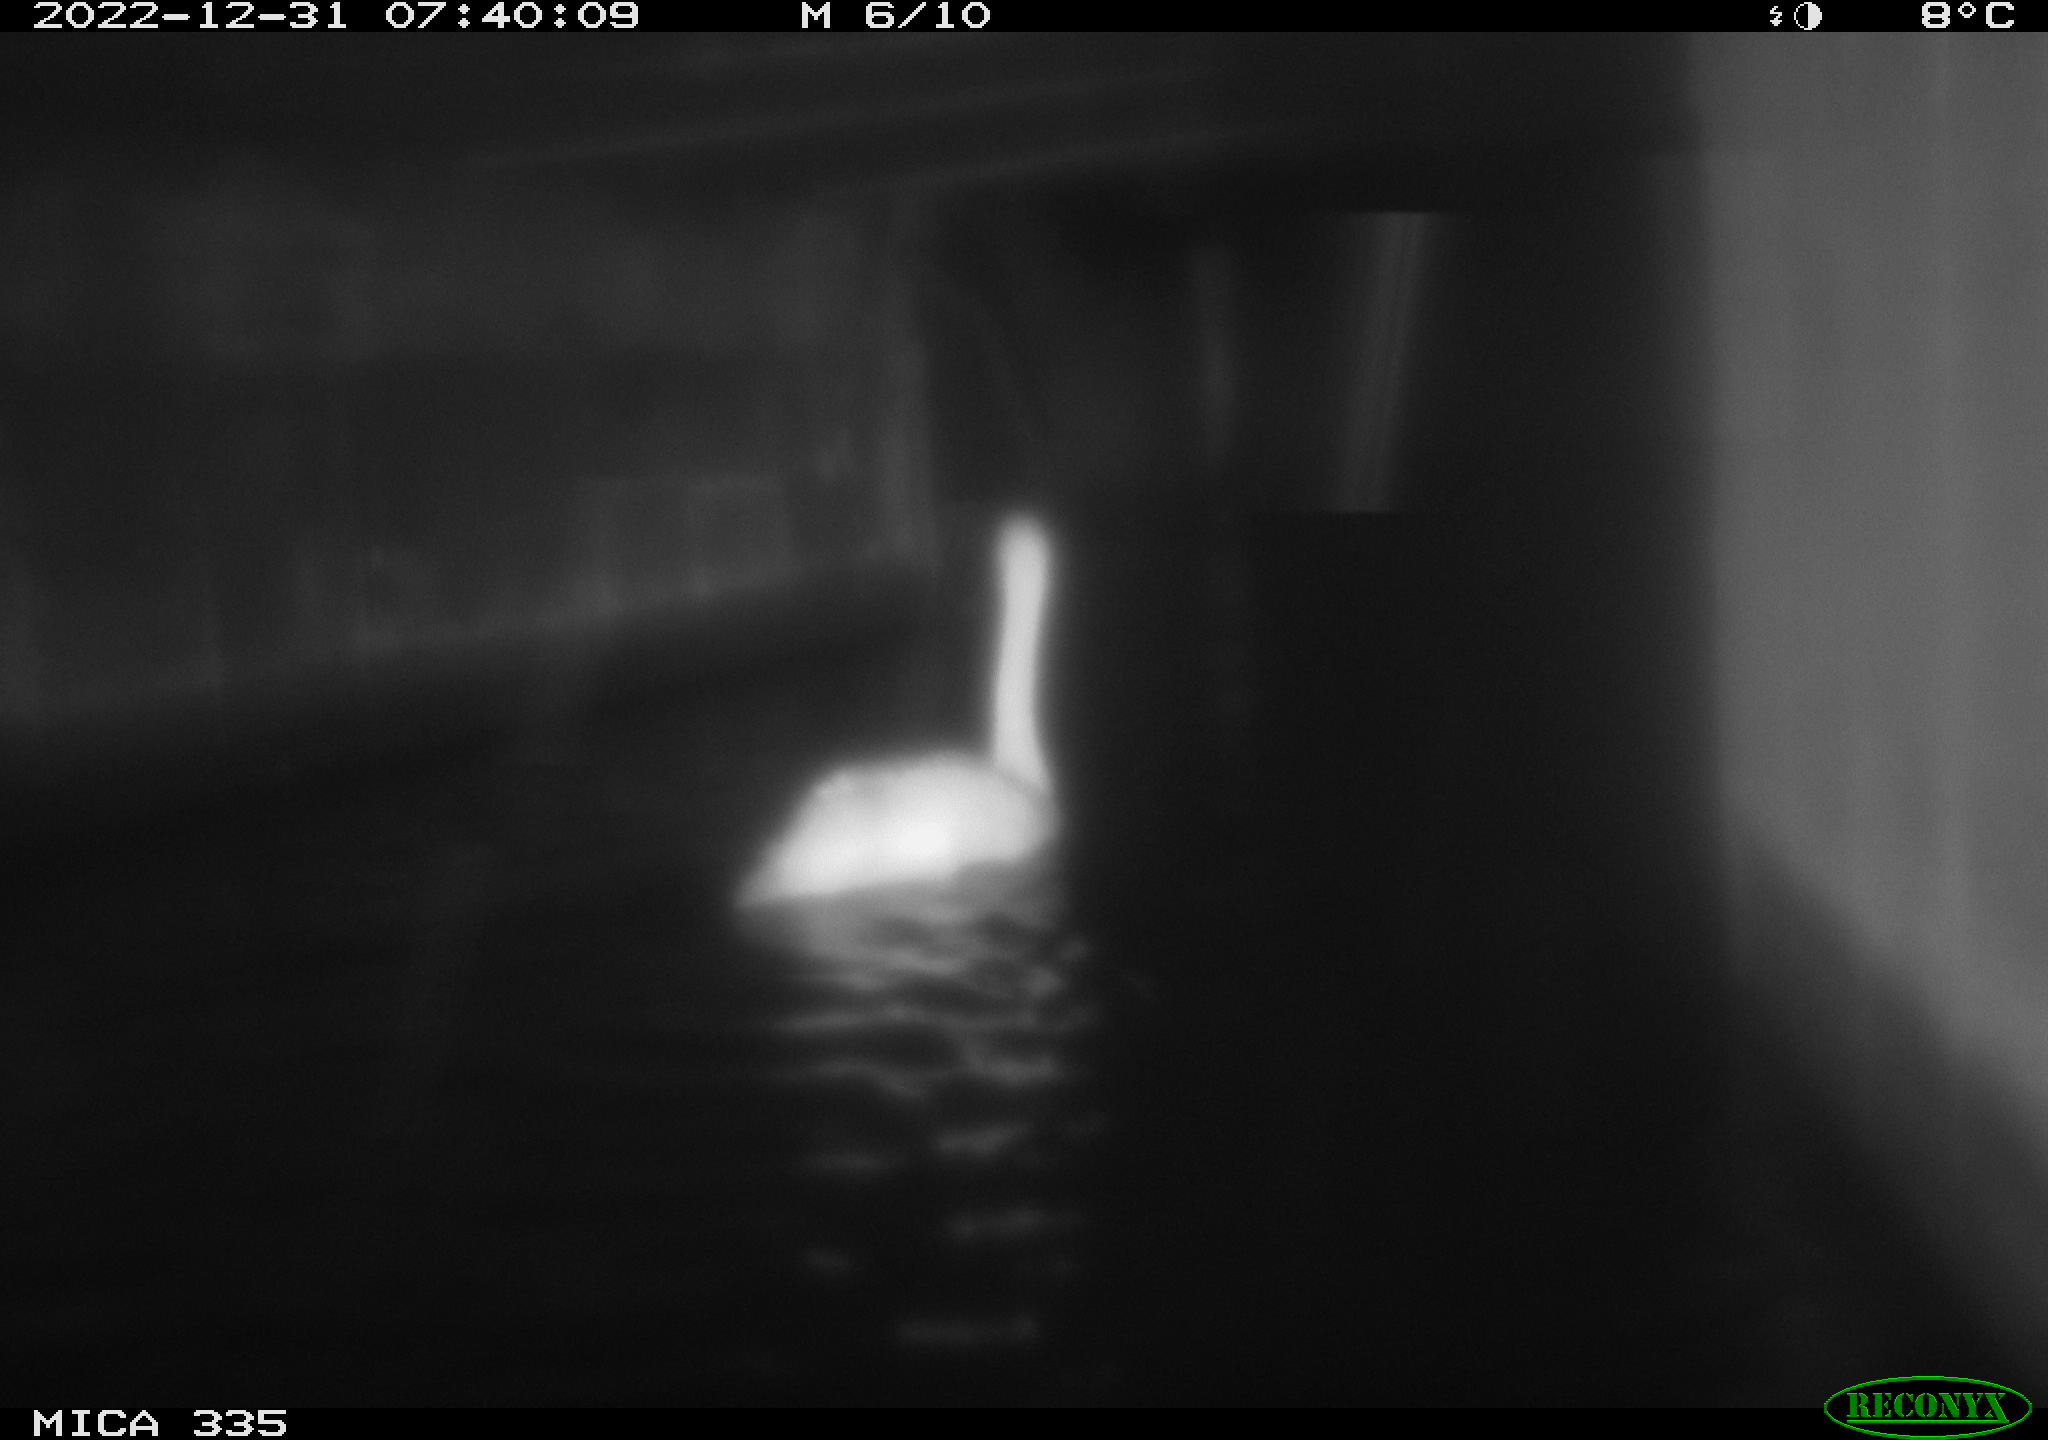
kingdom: Animalia
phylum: Chordata
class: Aves
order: Anseriformes
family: Anatidae
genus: Cygnus
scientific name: Cygnus olor
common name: Mute swan
